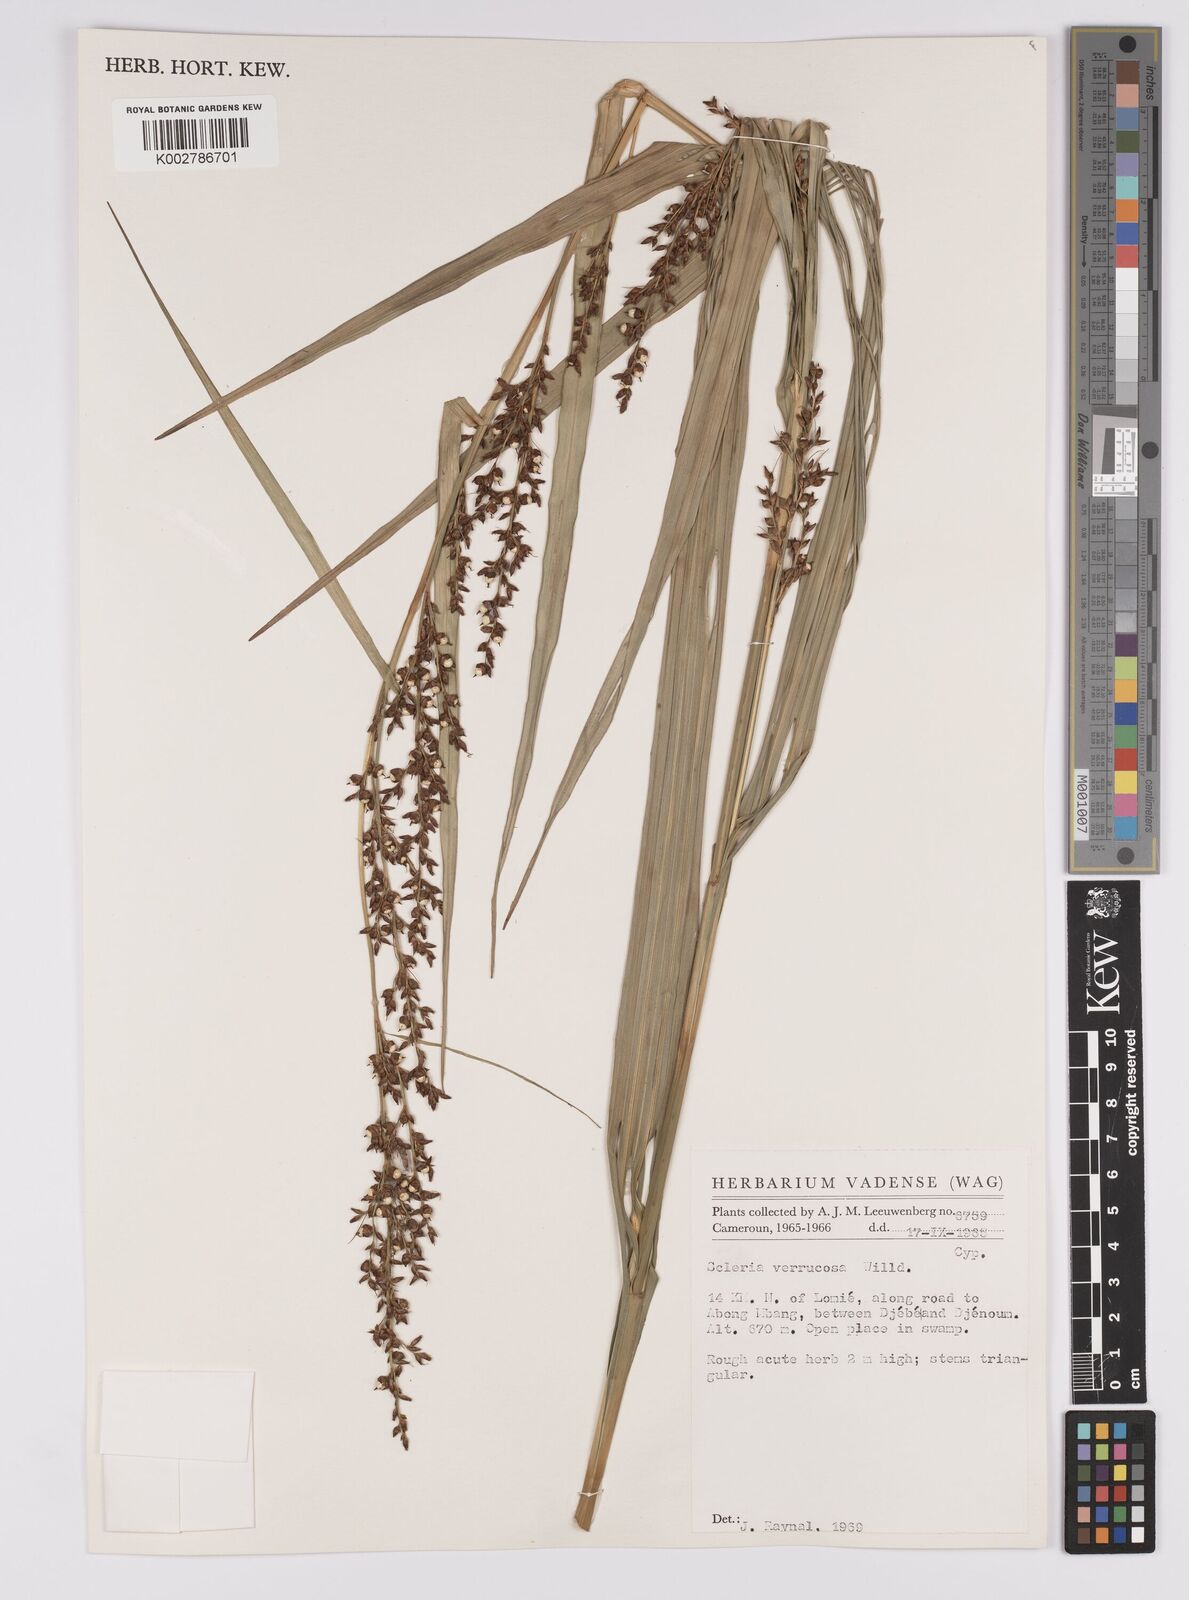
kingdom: Plantae
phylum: Tracheophyta
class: Liliopsida
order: Poales
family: Cyperaceae
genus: Scleria
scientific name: Scleria verrucosa
